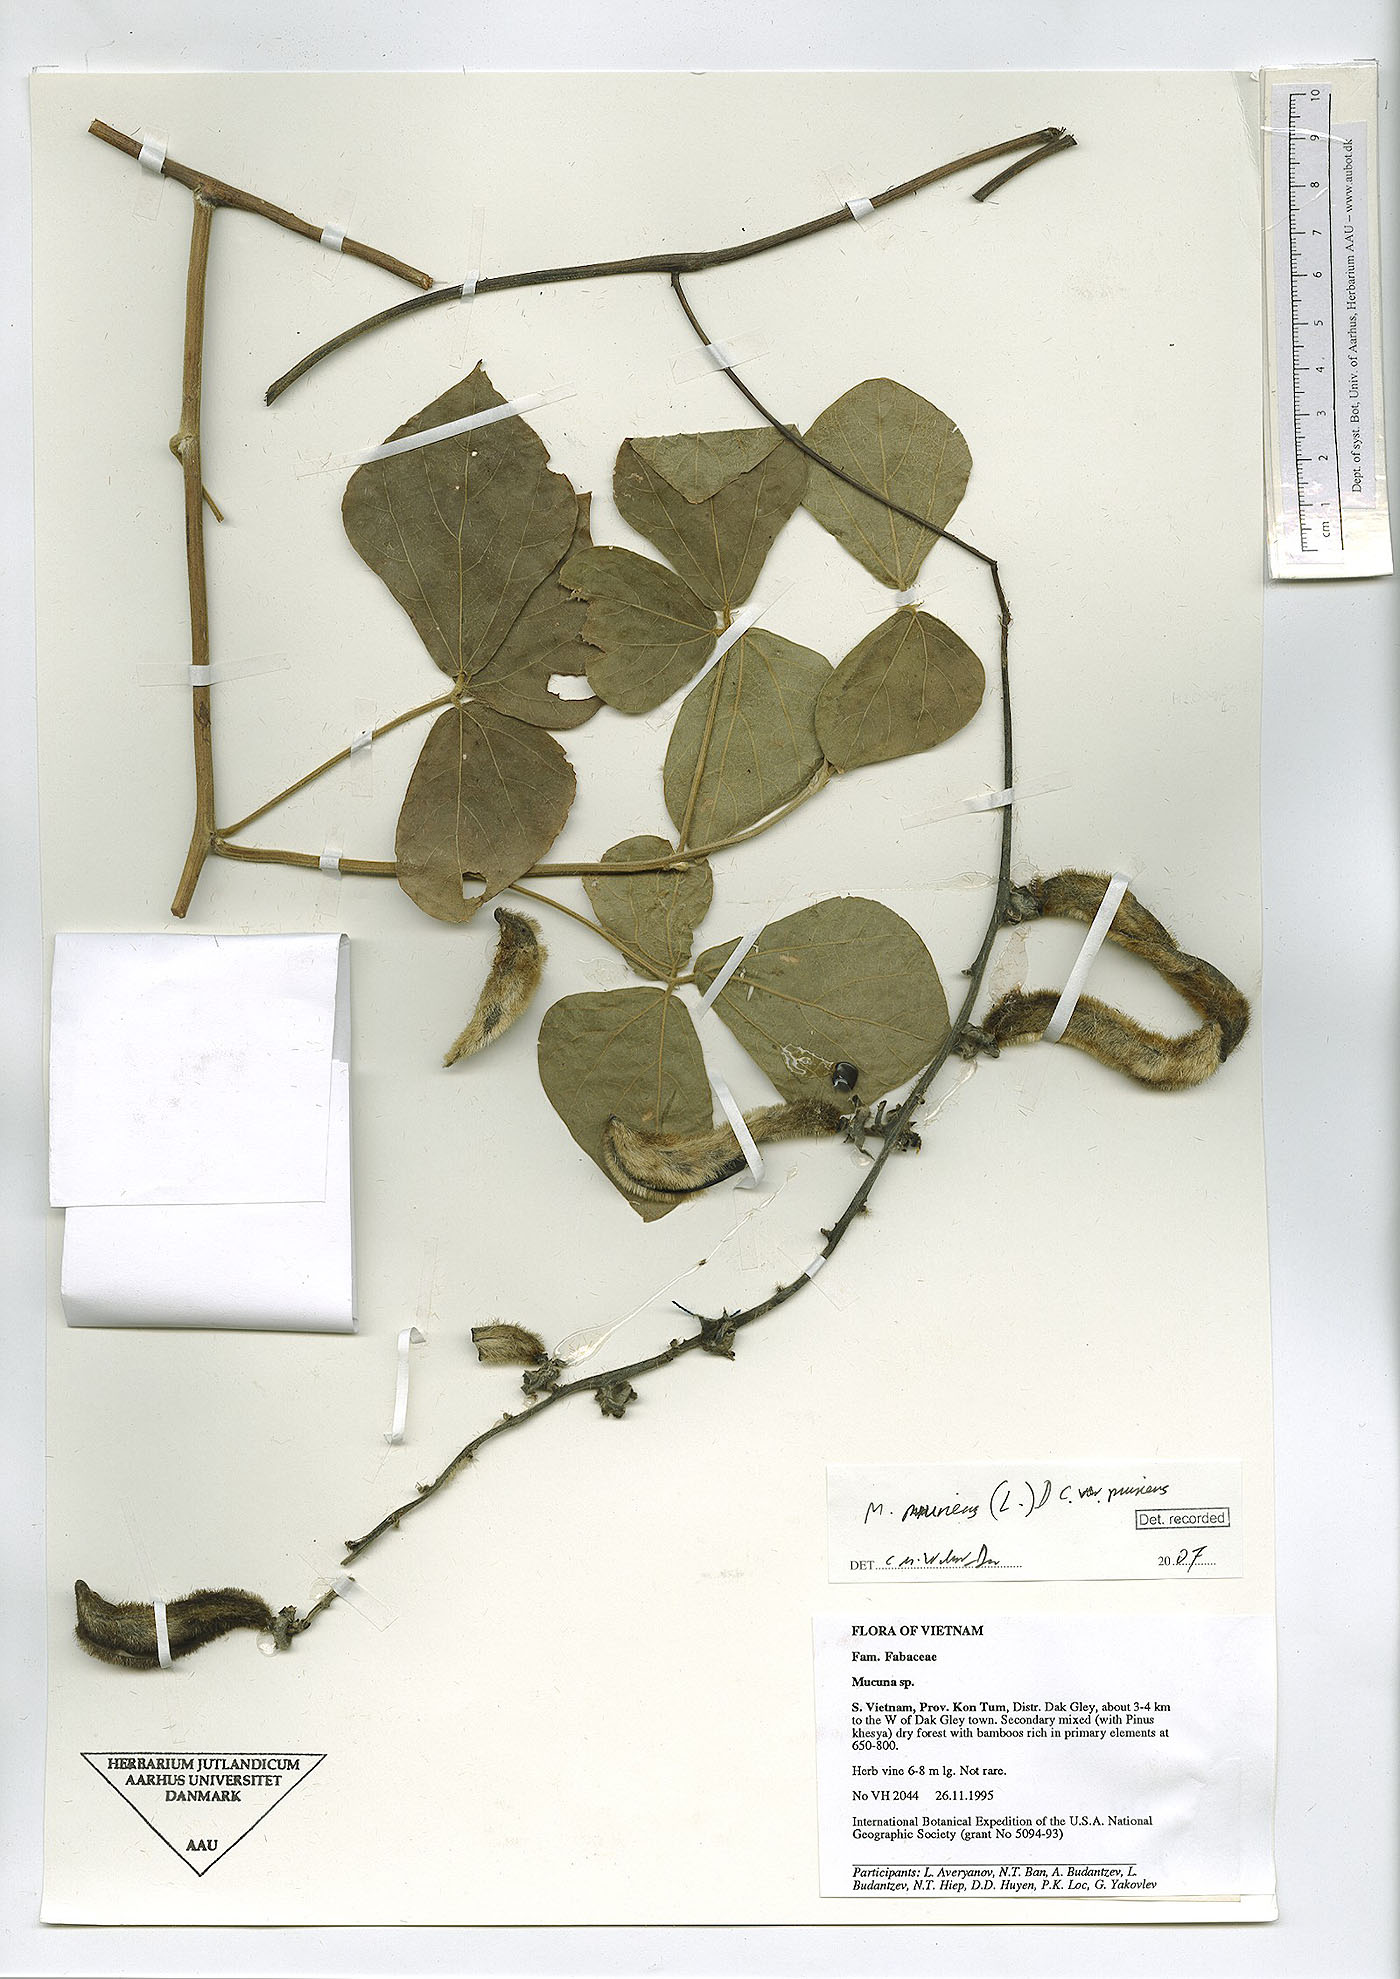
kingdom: Plantae
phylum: Tracheophyta
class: Magnoliopsida
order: Fabales
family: Fabaceae
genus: Mucuna
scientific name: Mucuna pruriens
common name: Cow-itch
